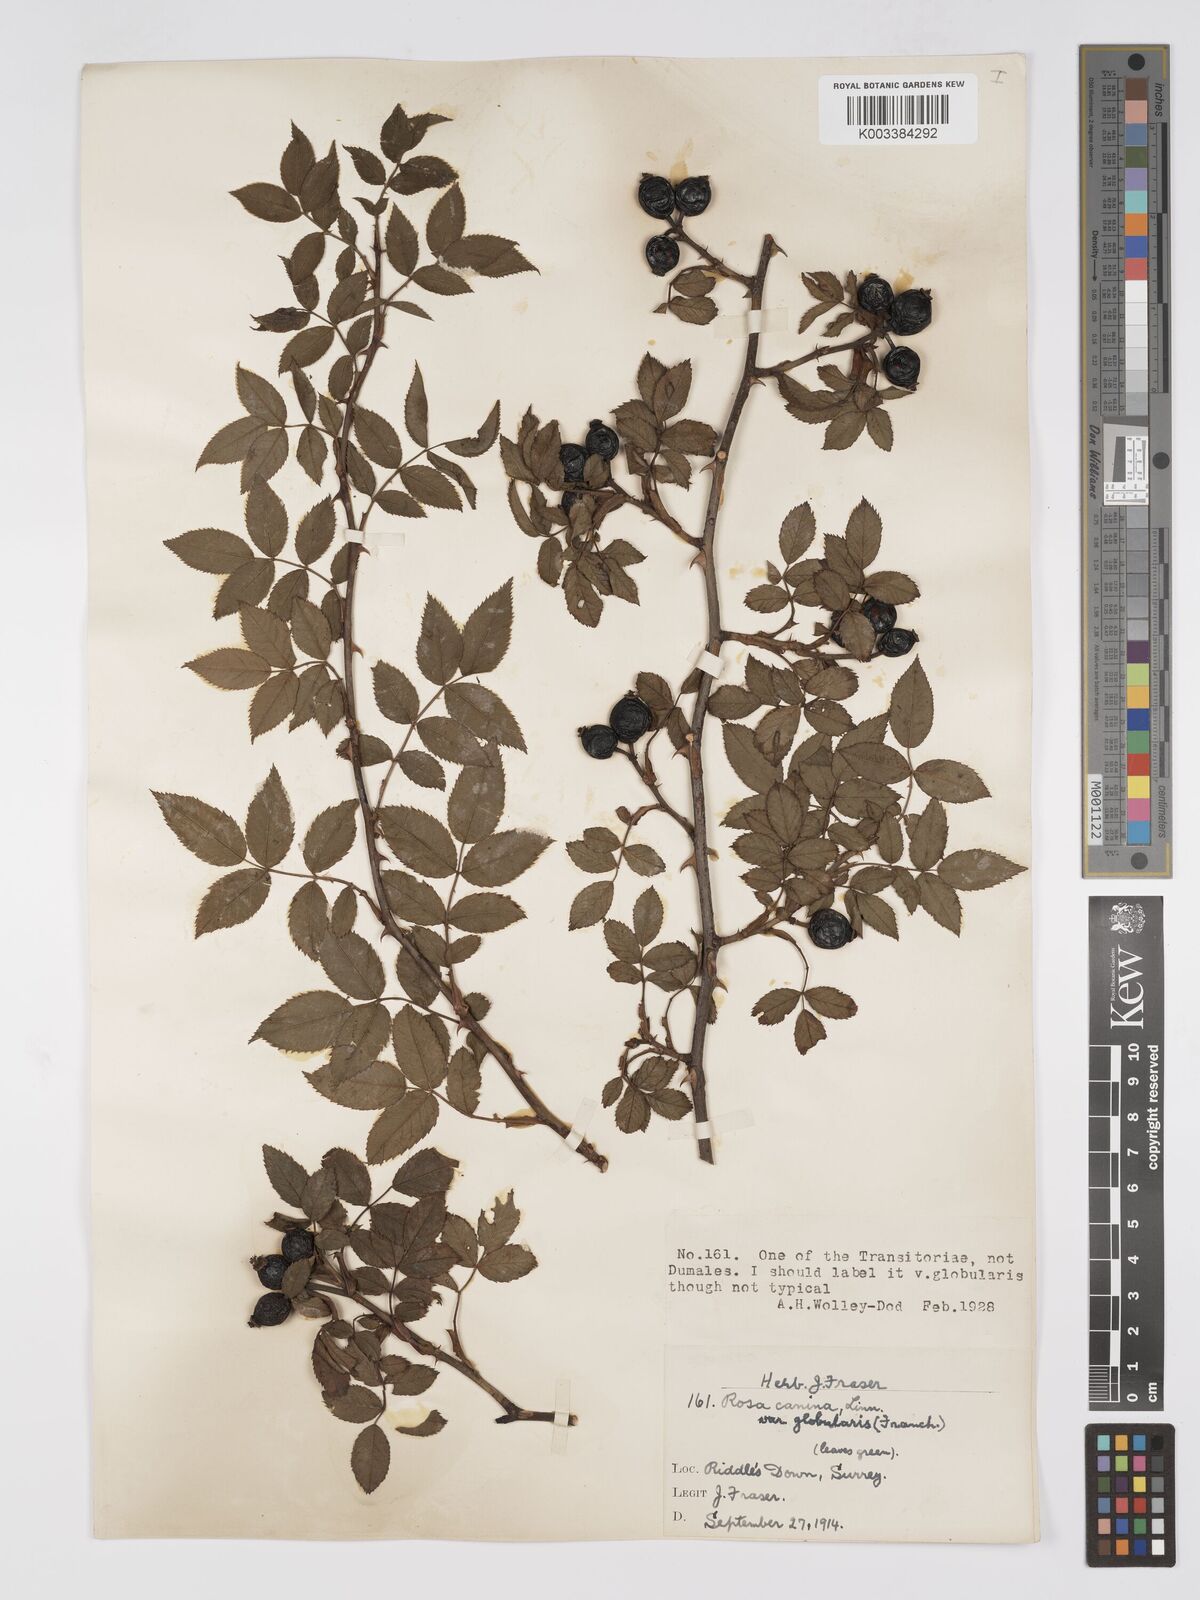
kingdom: Plantae
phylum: Tracheophyta
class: Magnoliopsida
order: Rosales
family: Rosaceae
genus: Rosa
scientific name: Rosa canina
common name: Dog rose
